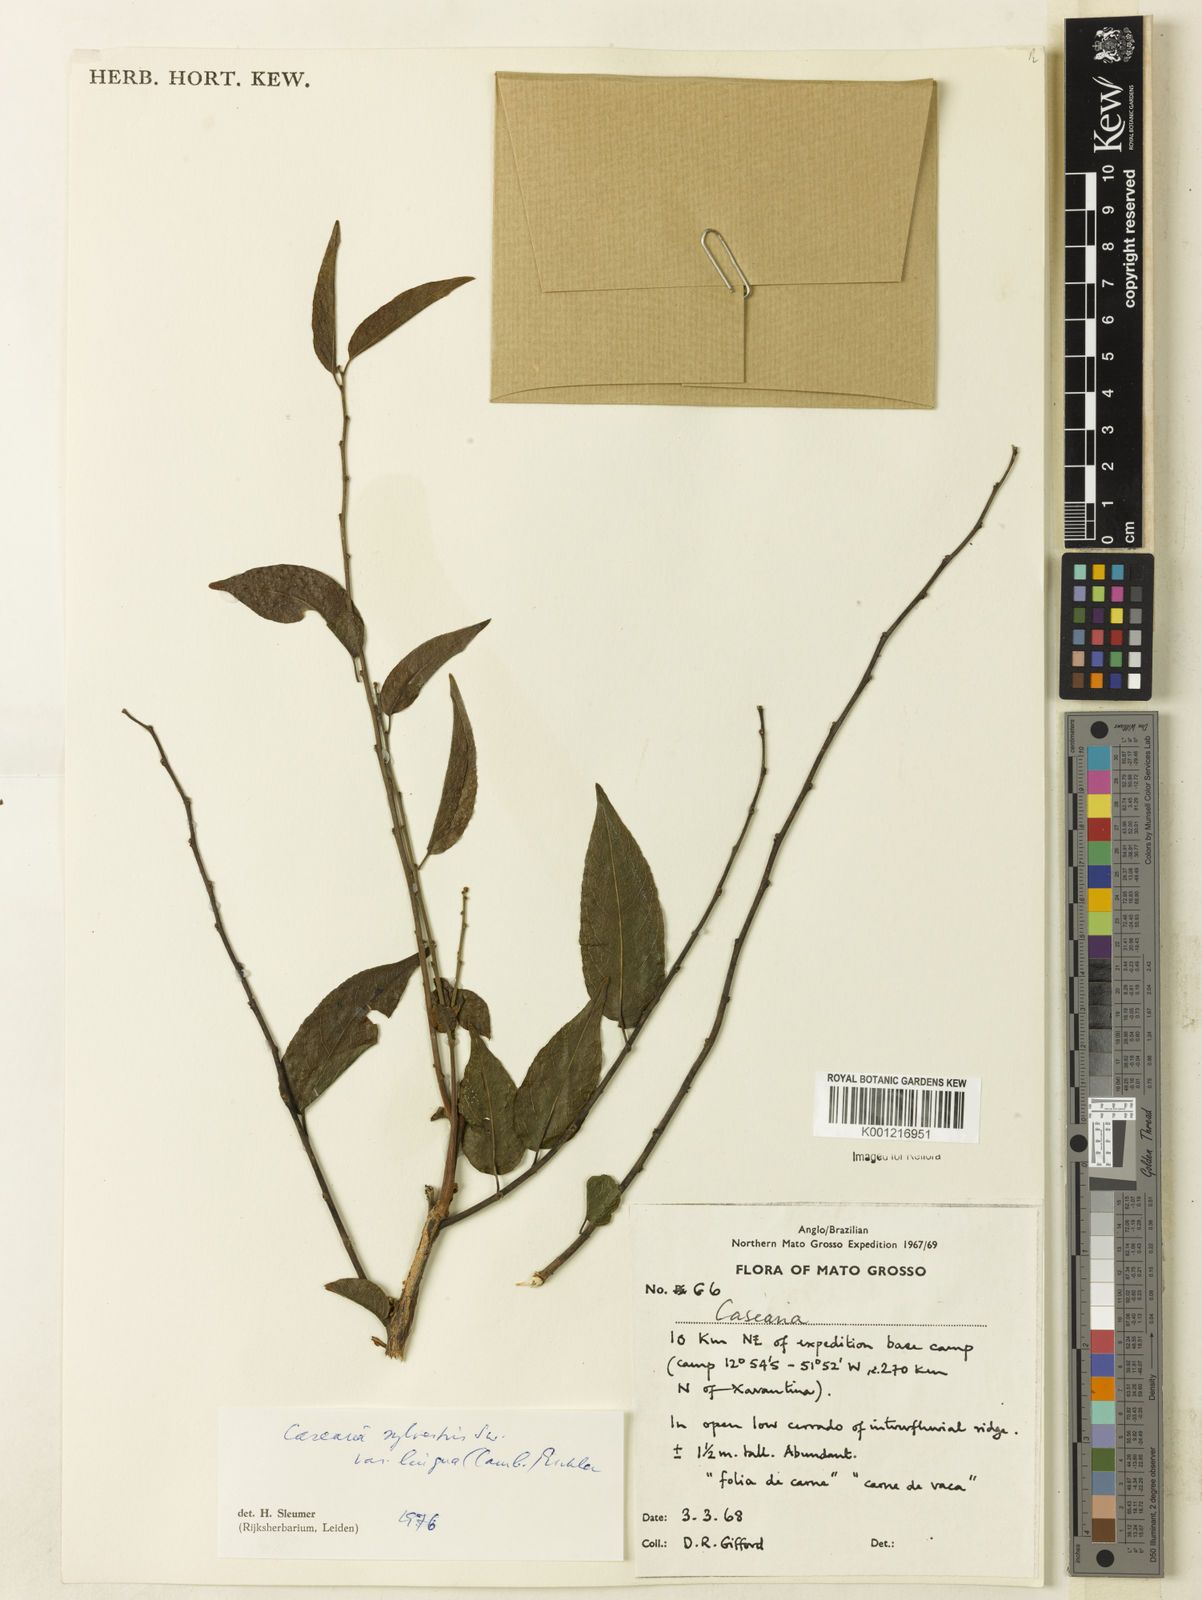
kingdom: Plantae
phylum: Tracheophyta
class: Magnoliopsida
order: Malpighiales
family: Salicaceae
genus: Casearia
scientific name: Casearia sylvestris
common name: Wild sage
